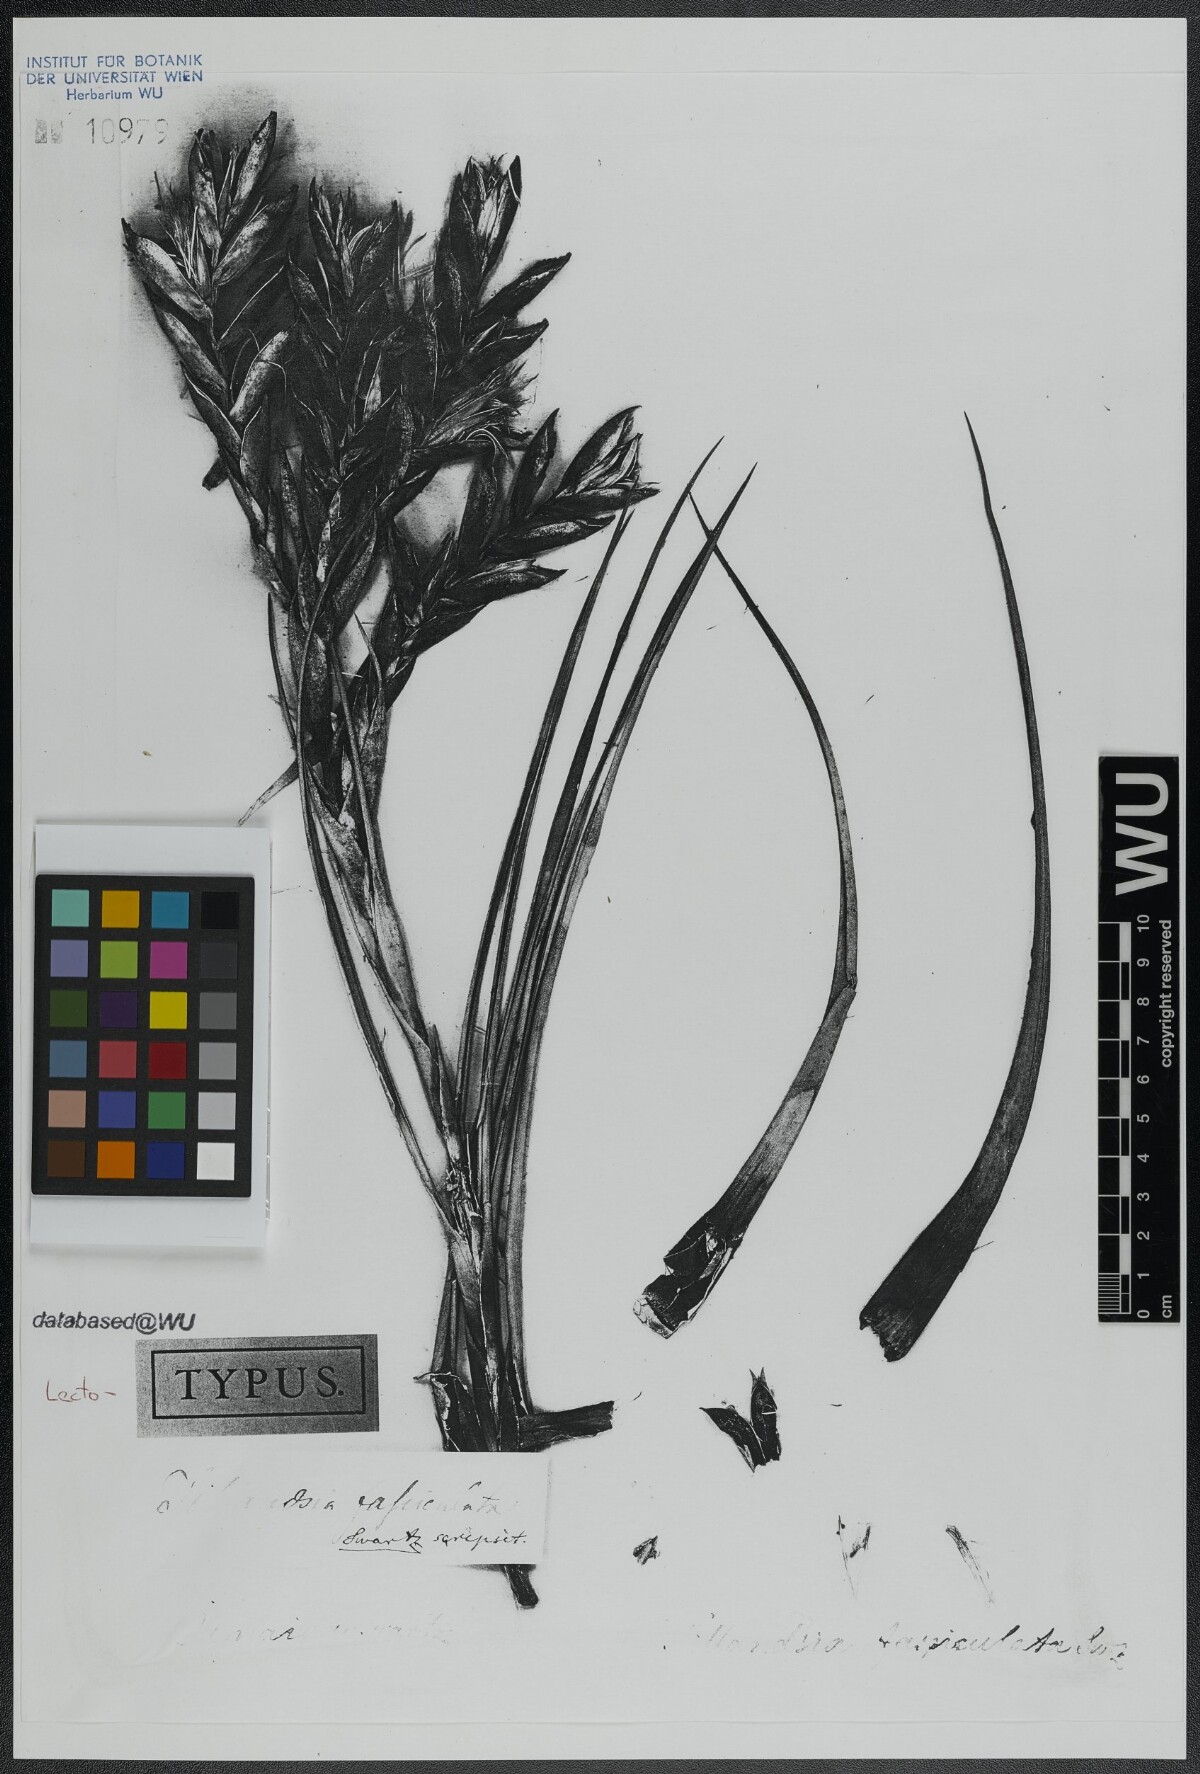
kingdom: Plantae
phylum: Tracheophyta
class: Liliopsida
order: Poales
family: Bromeliaceae
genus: Tillandsia
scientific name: Tillandsia fasciculata
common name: Giant airplant
